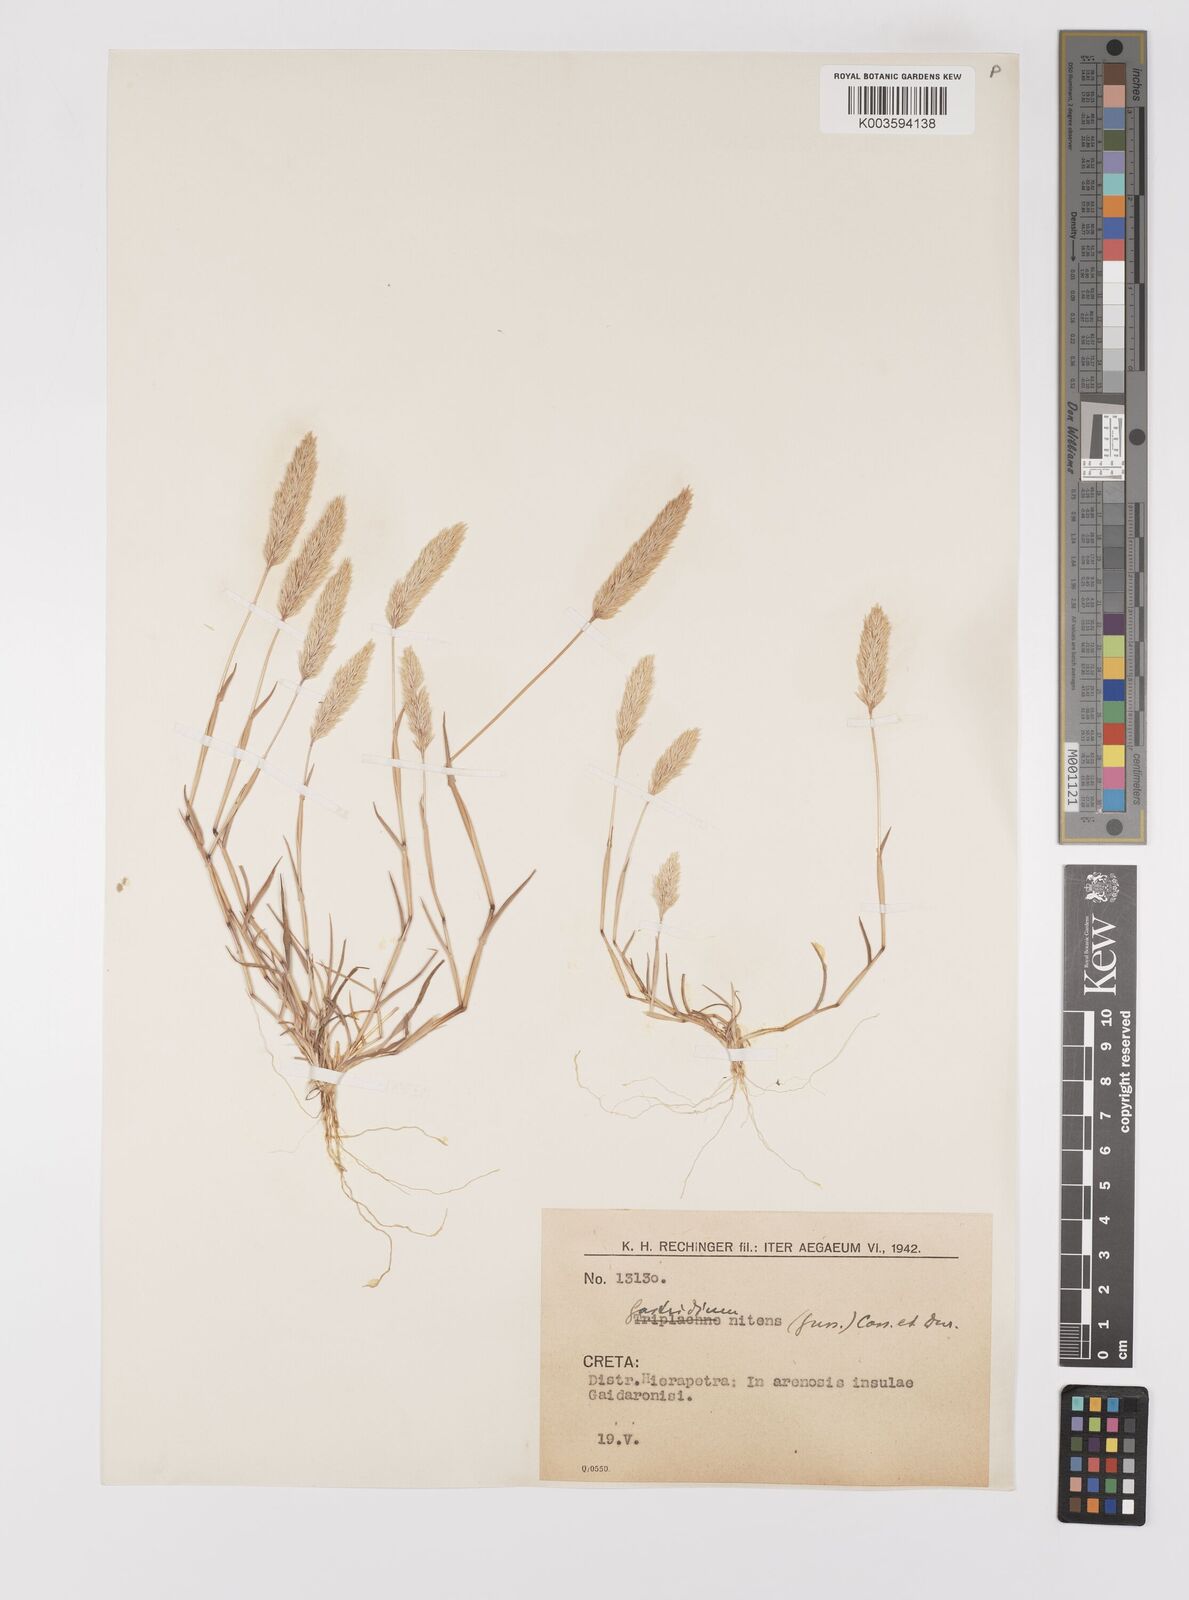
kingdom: Plantae
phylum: Tracheophyta
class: Liliopsida
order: Poales
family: Poaceae
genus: Triplachne
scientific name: Triplachne nitens
